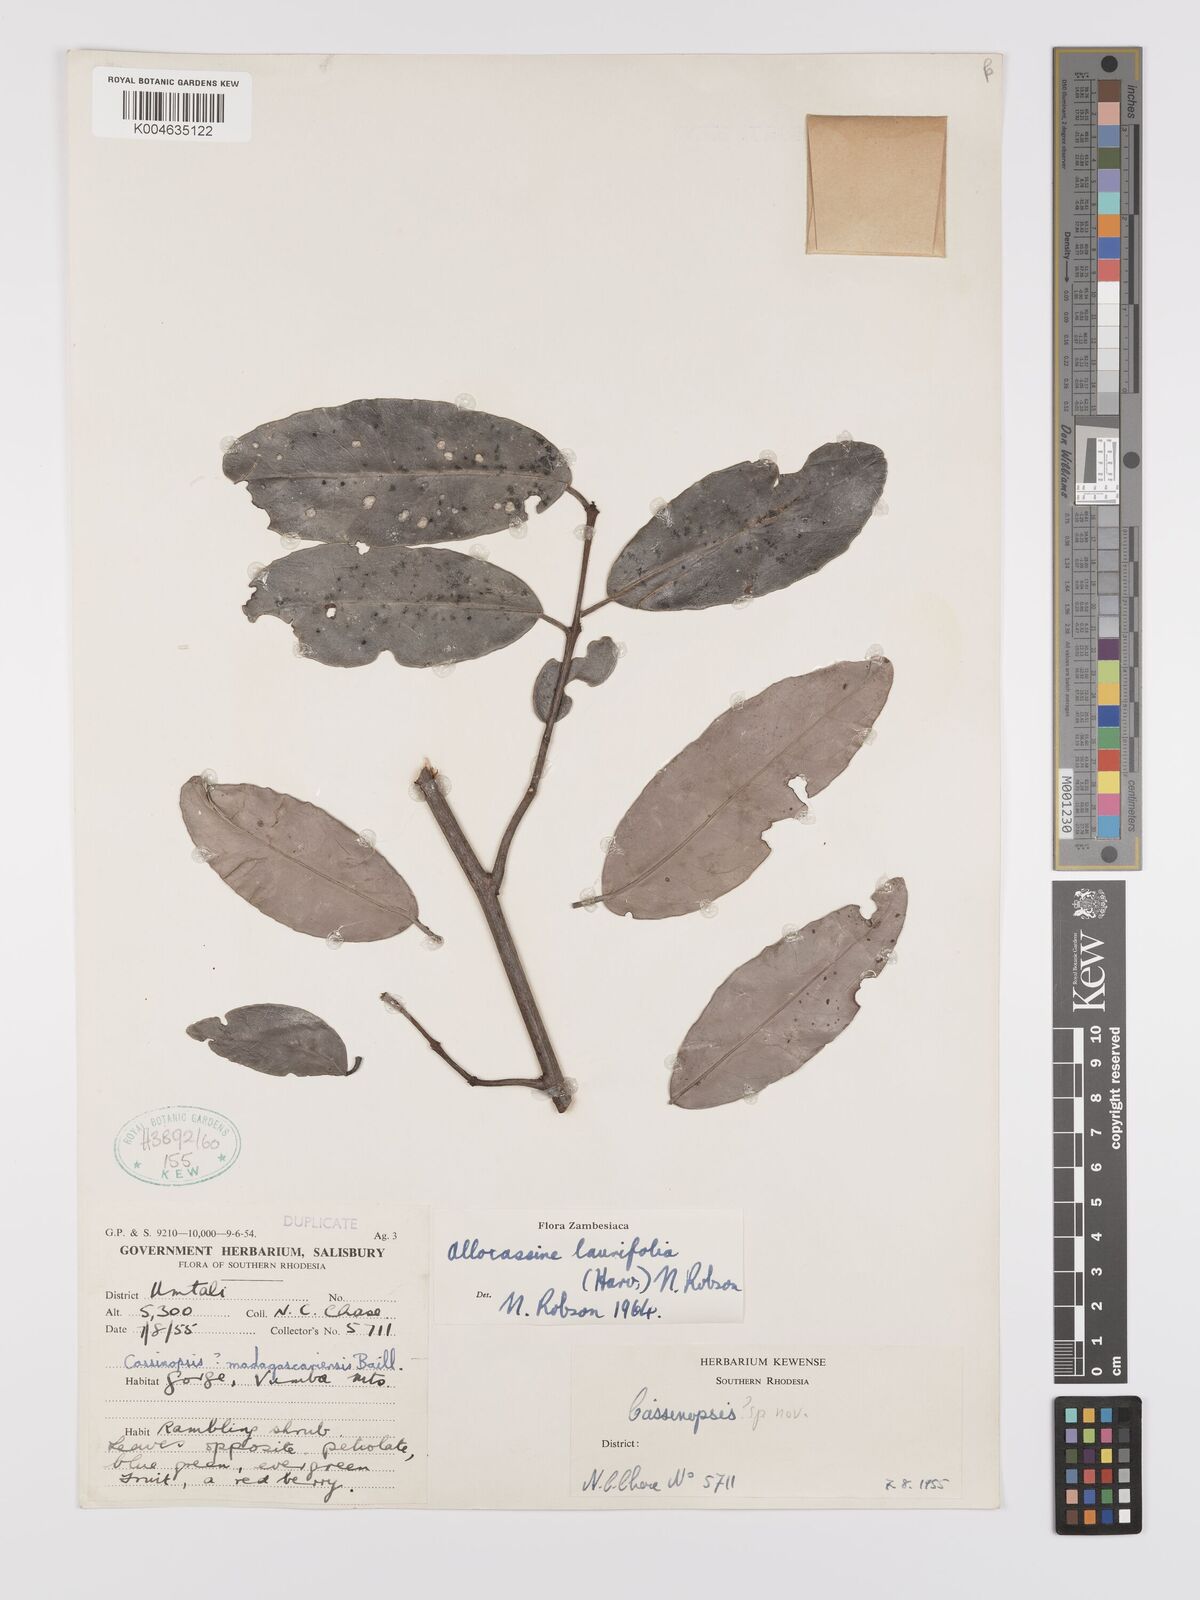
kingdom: Plantae
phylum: Tracheophyta
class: Magnoliopsida
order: Celastrales
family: Celastraceae
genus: Allocassine
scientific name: Allocassine laurifolia
